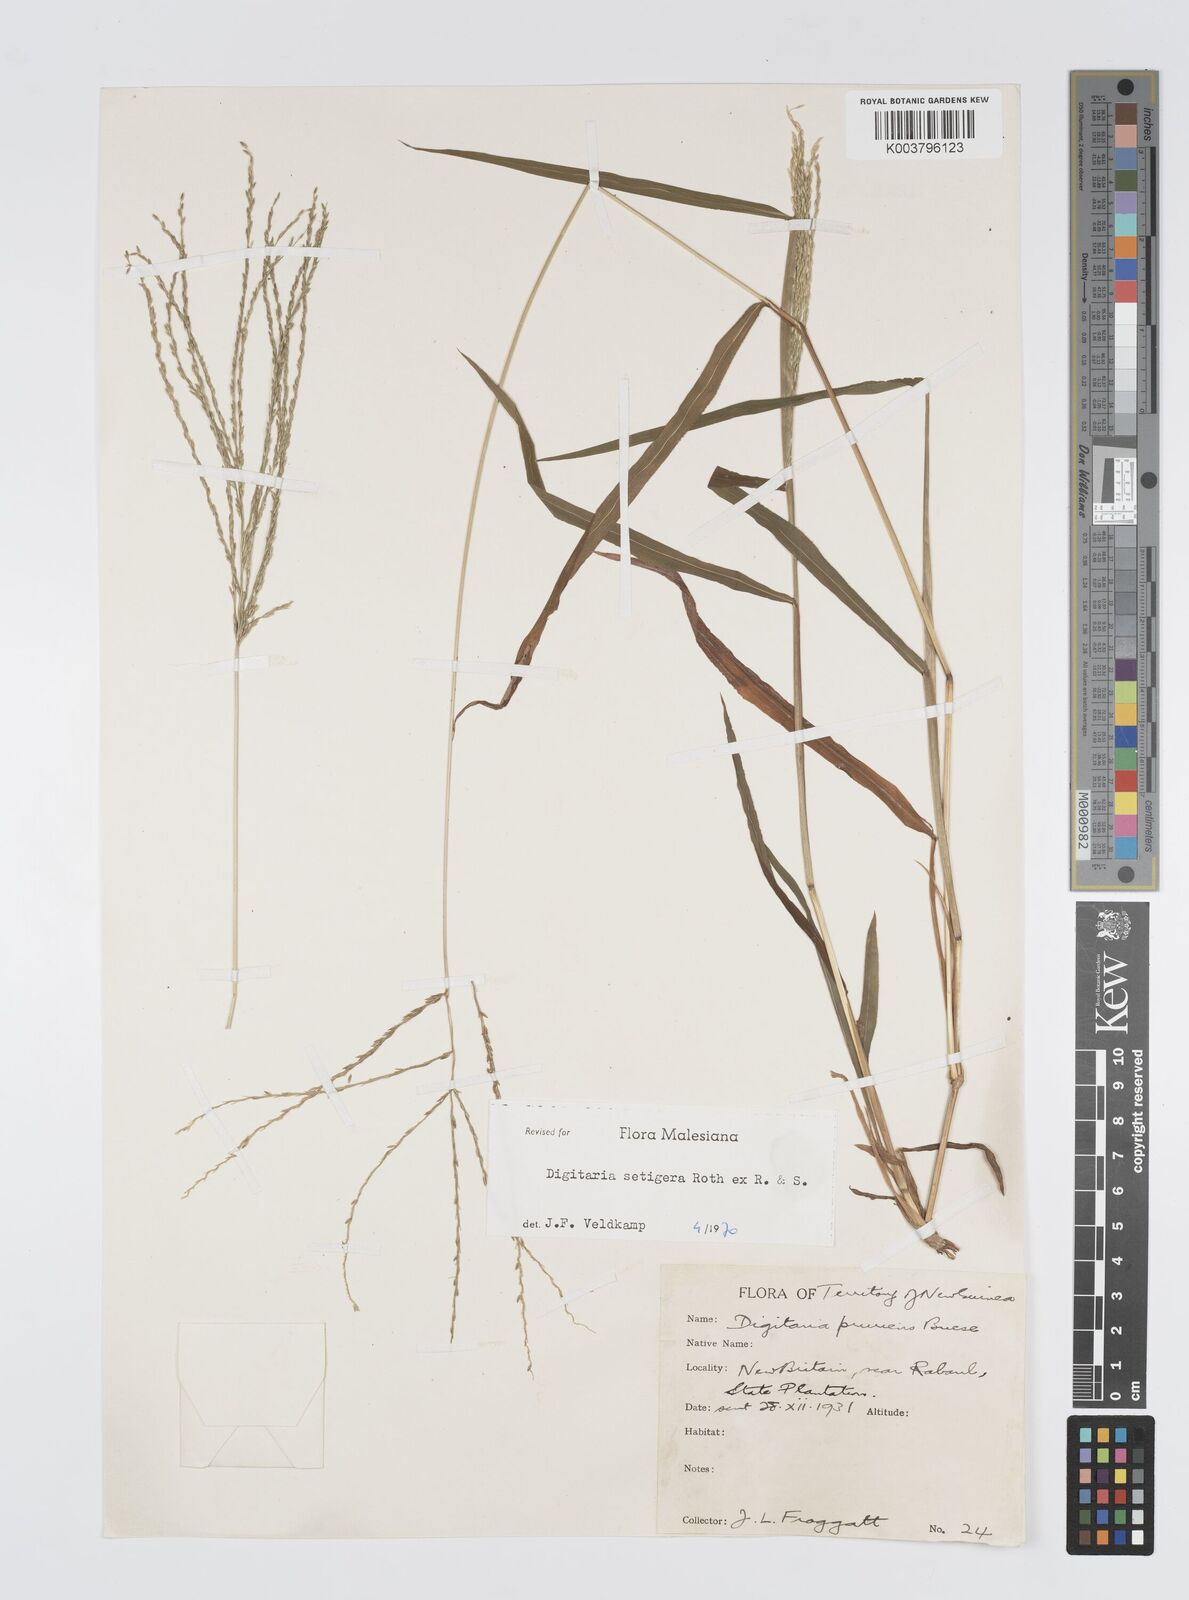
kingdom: Plantae
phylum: Tracheophyta
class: Liliopsida
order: Poales
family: Poaceae
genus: Digitaria
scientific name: Digitaria setigera
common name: East indian crabgrass
